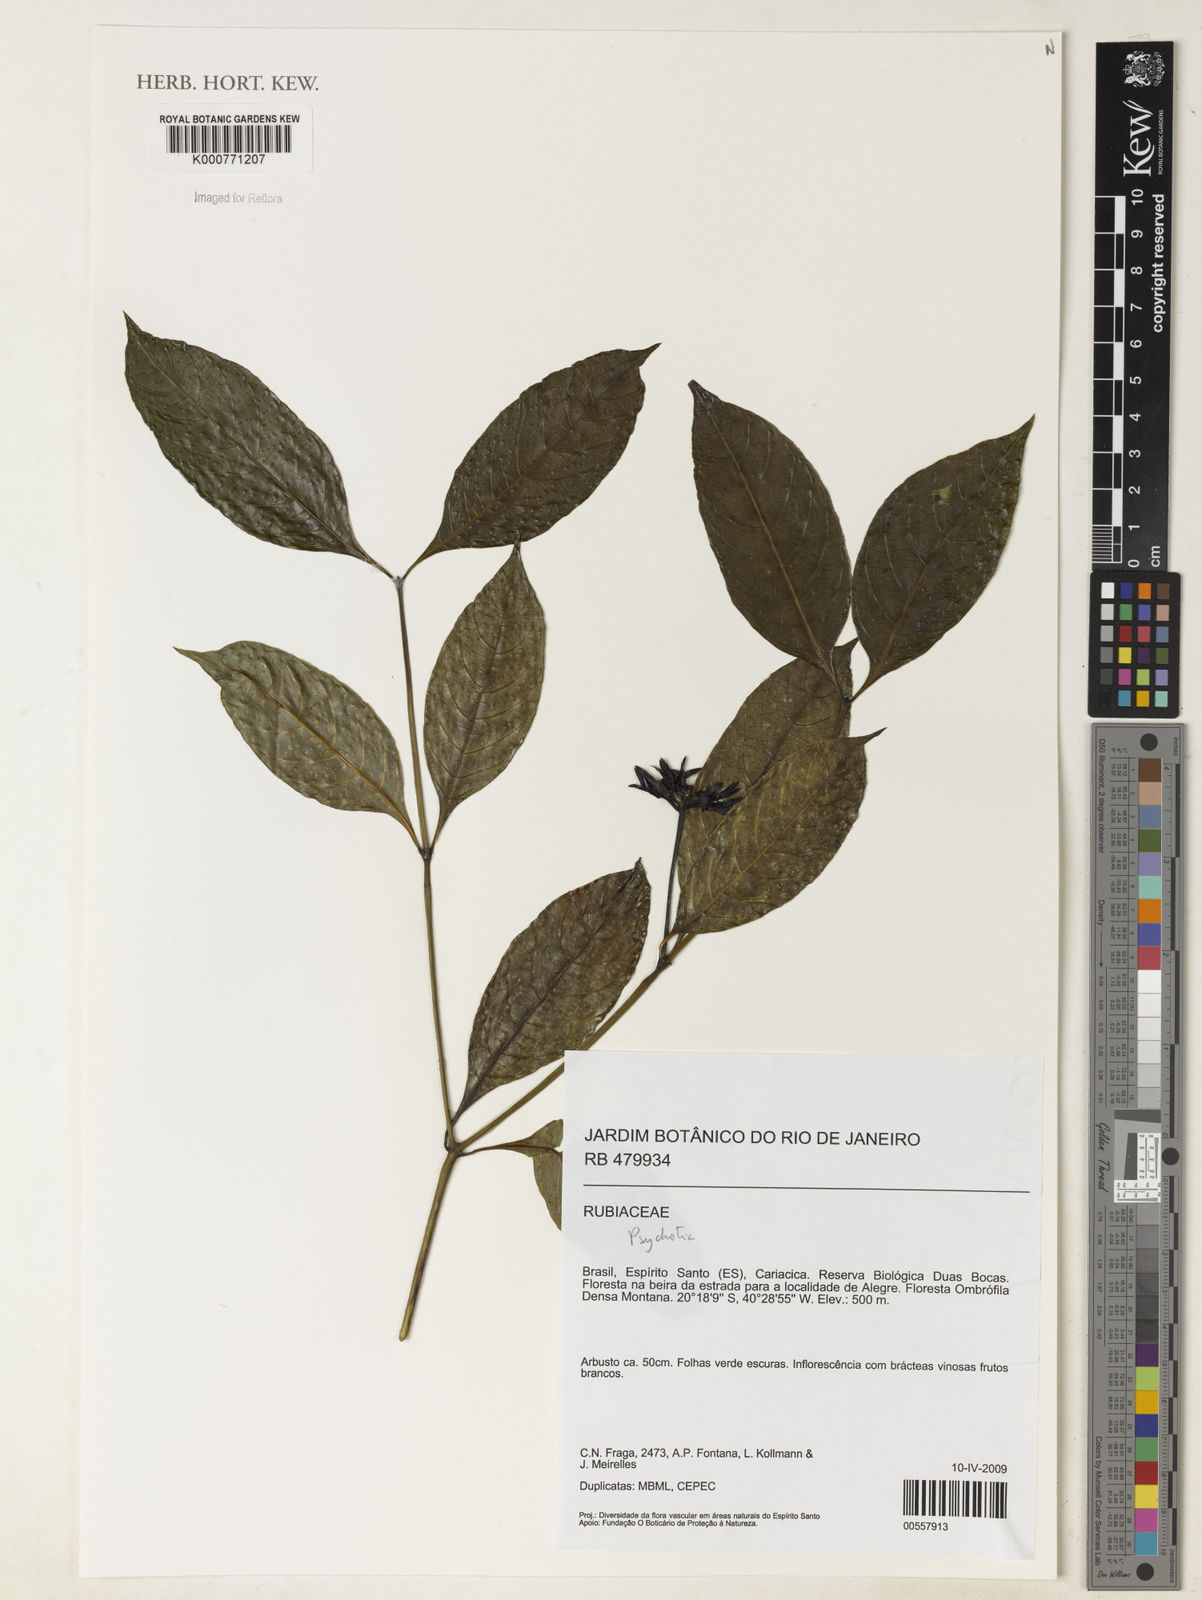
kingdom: Plantae
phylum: Tracheophyta
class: Magnoliopsida
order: Gentianales
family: Rubiaceae
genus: Psychotria
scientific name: Psychotria
